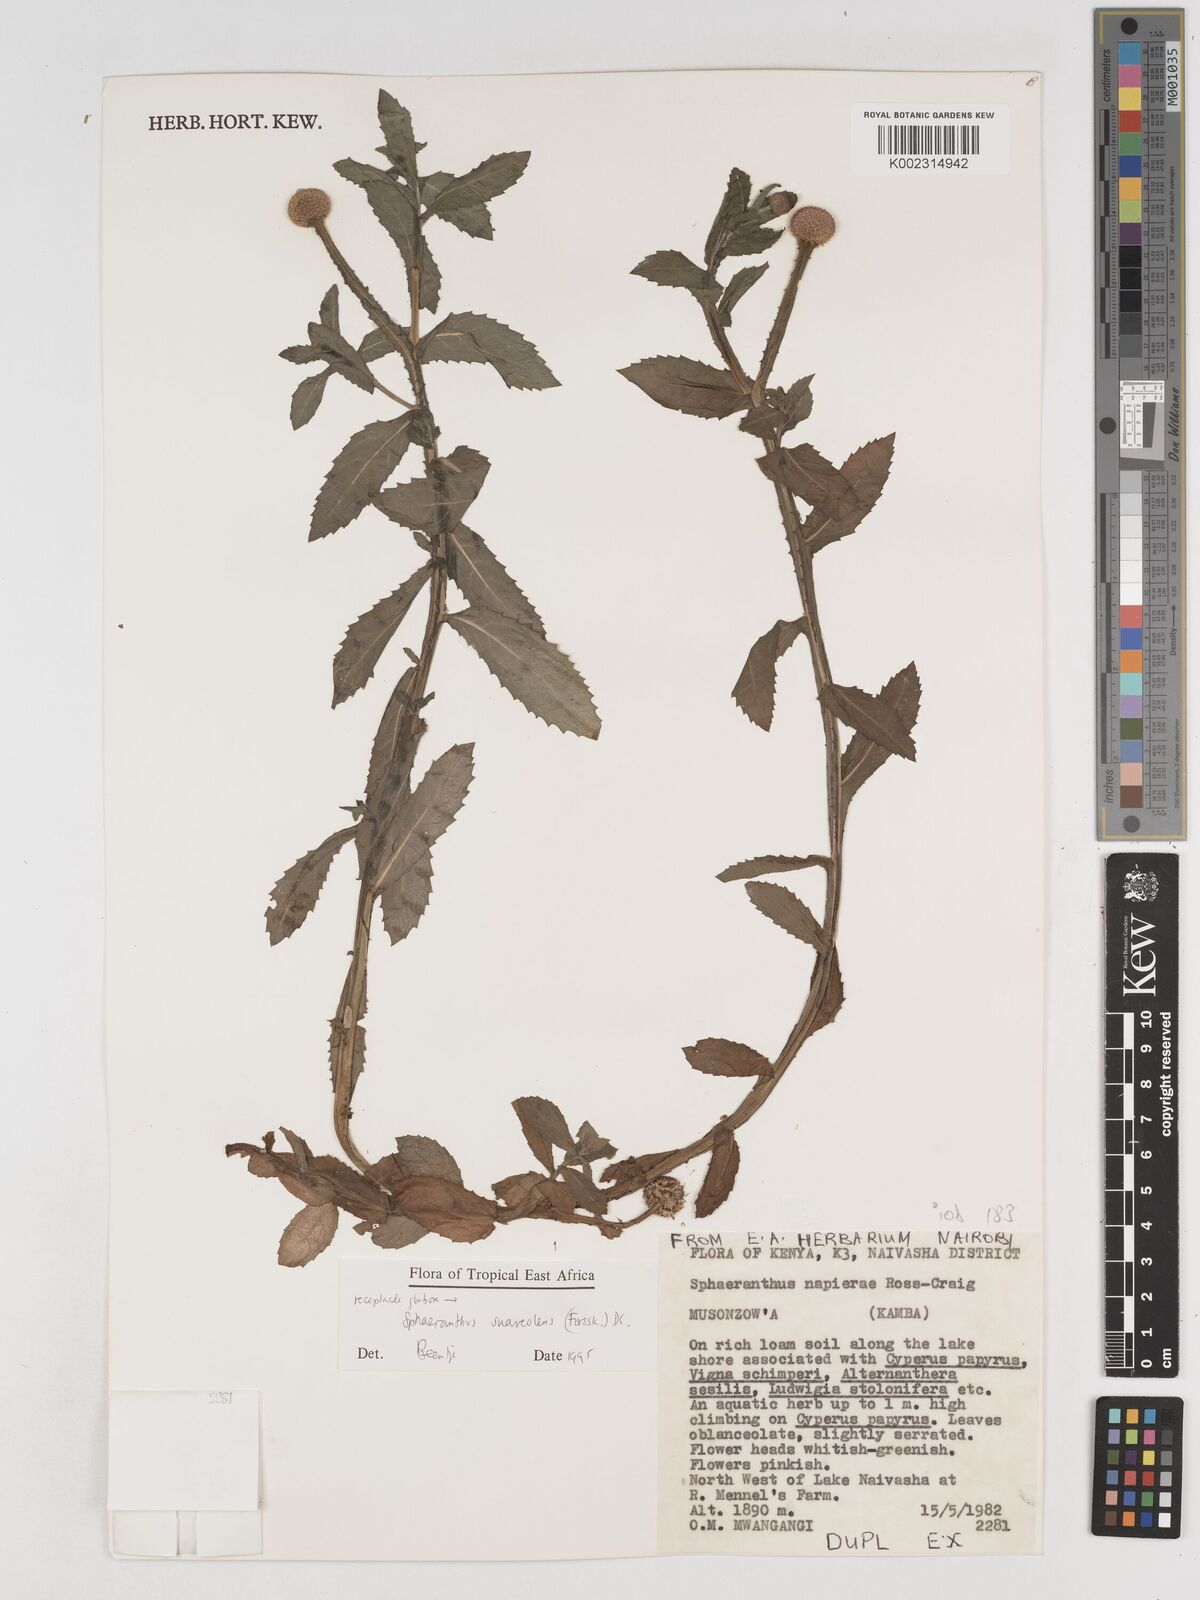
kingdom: Plantae
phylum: Tracheophyta
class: Magnoliopsida
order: Asterales
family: Asteraceae
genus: Sphaeranthus
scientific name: Sphaeranthus suaveolens
